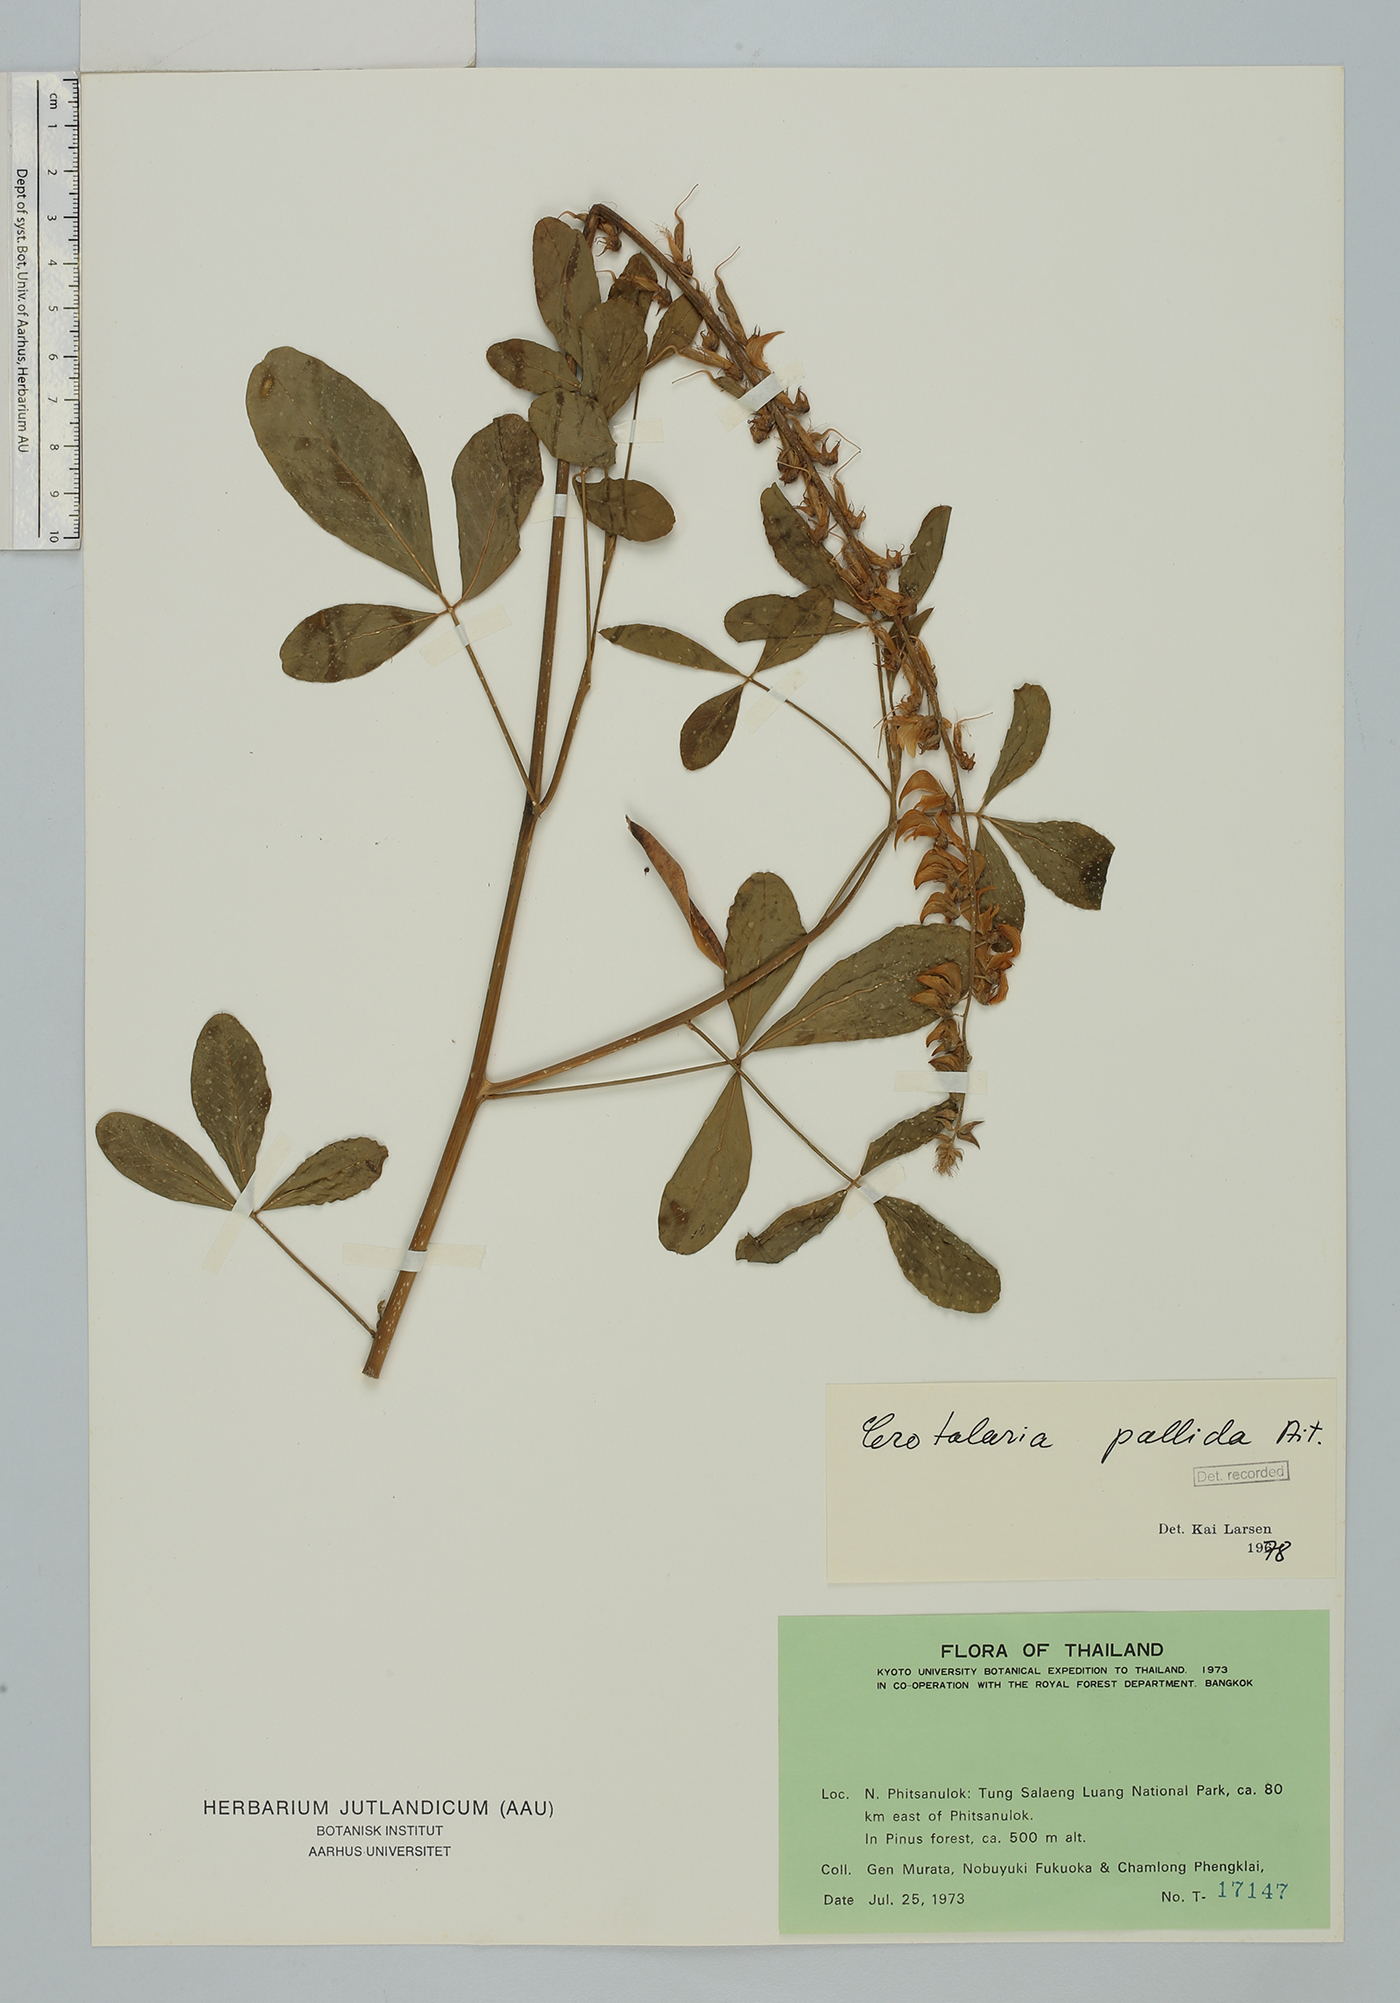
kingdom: Plantae
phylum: Tracheophyta
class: Magnoliopsida
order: Fabales
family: Fabaceae
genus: Crotalaria
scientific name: Crotalaria pallida
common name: Smooth rattlebox
